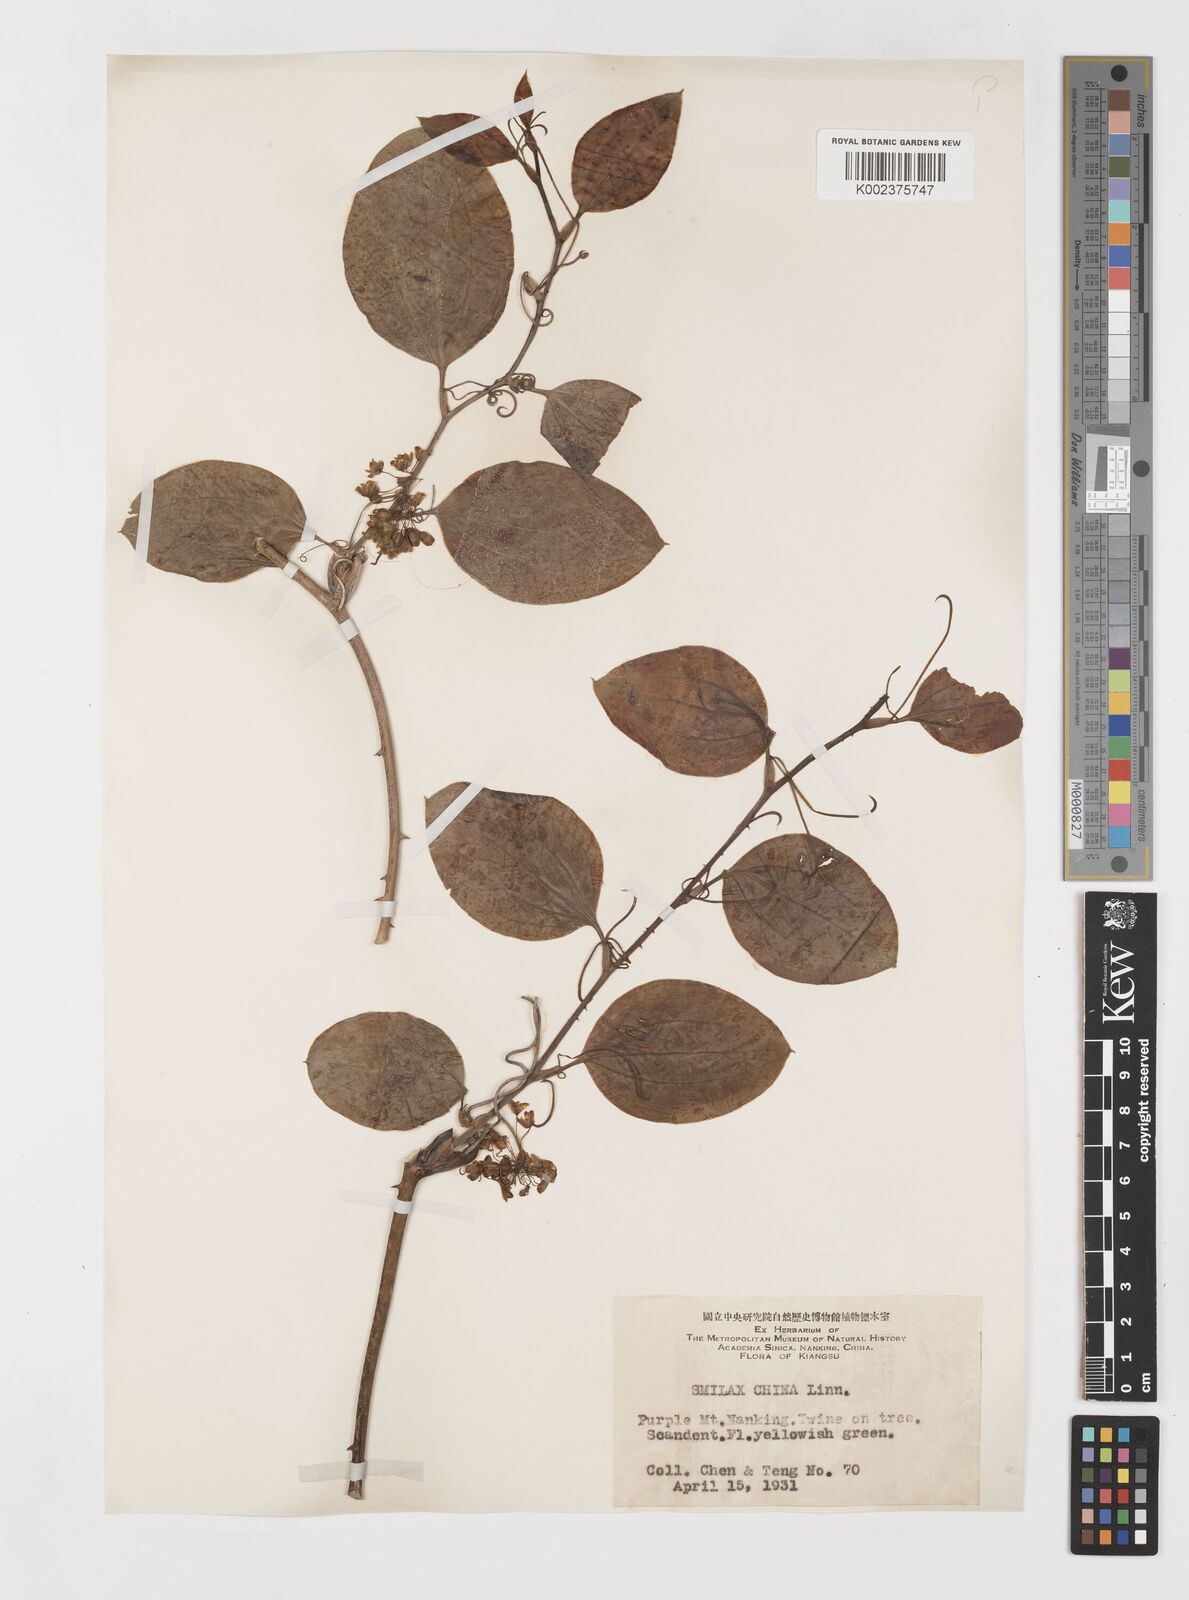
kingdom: Plantae
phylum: Tracheophyta
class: Liliopsida
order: Liliales
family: Smilacaceae
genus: Smilax
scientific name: Smilax china
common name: Chinaroot
